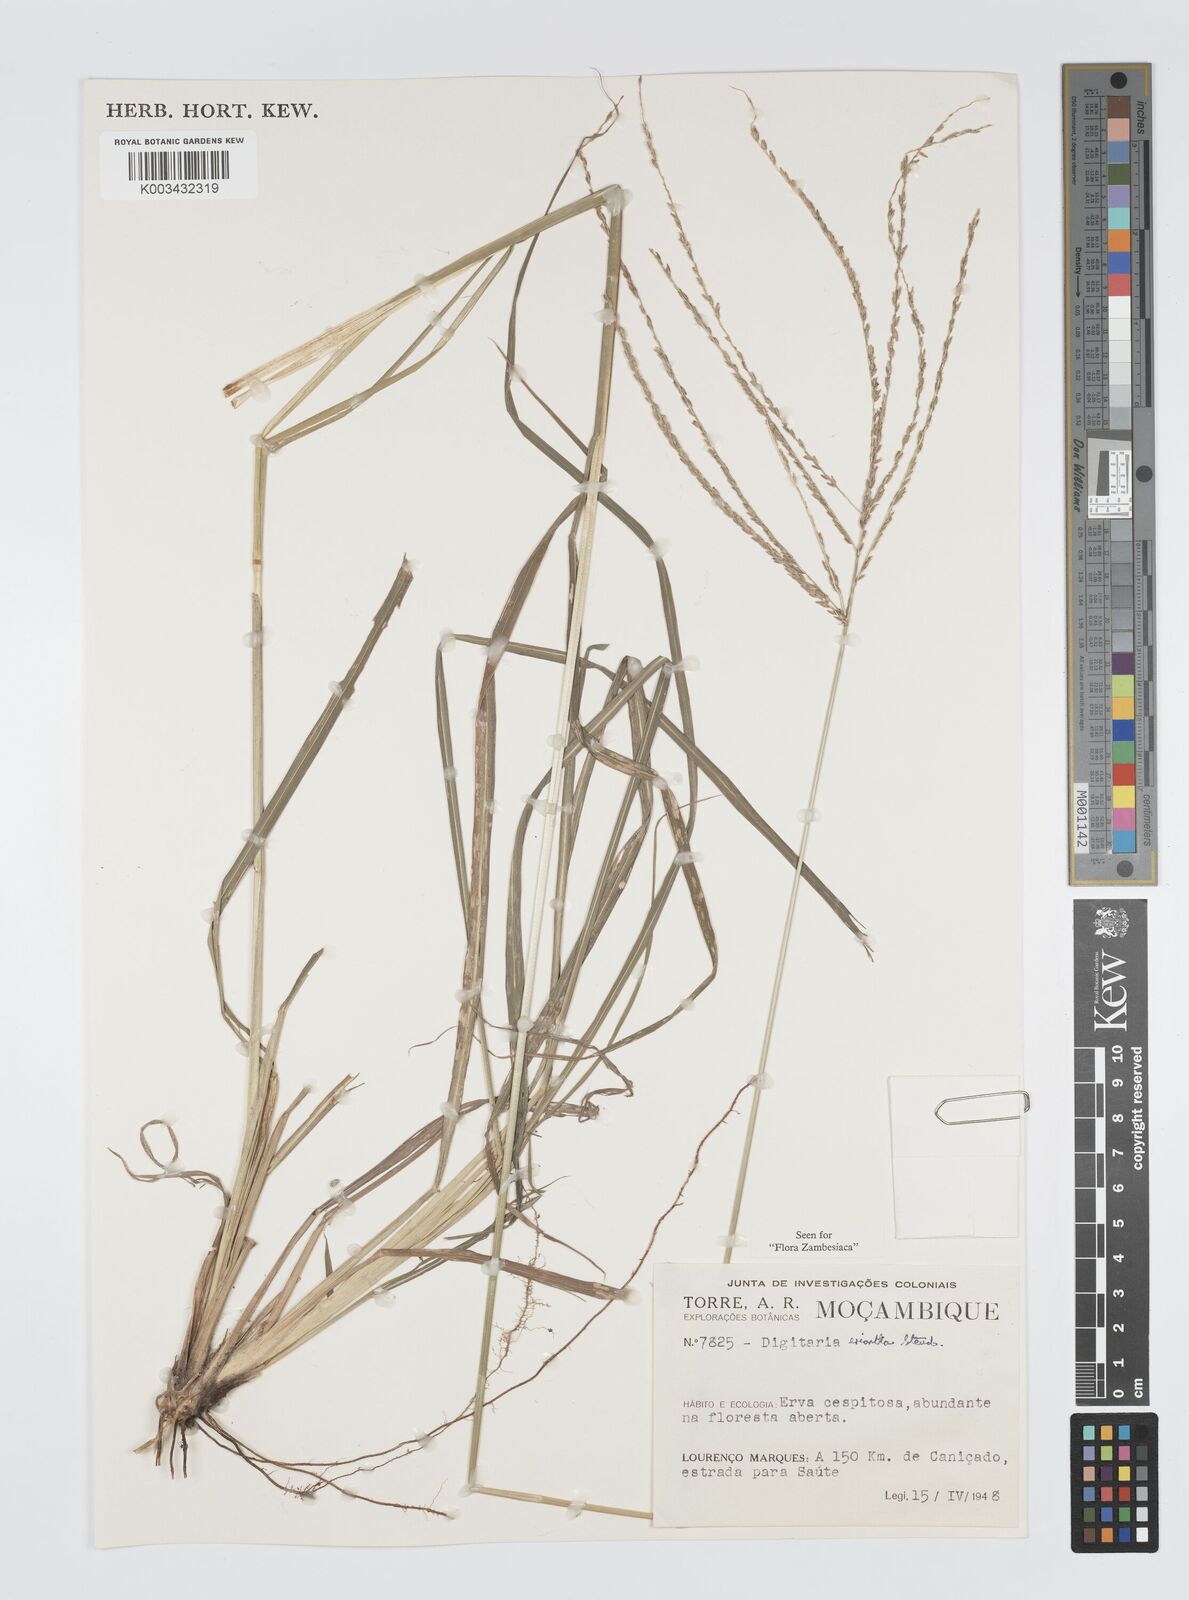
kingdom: Plantae
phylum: Tracheophyta
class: Liliopsida
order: Poales
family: Poaceae
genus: Digitaria
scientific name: Digitaria eriantha
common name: Digitgrass
